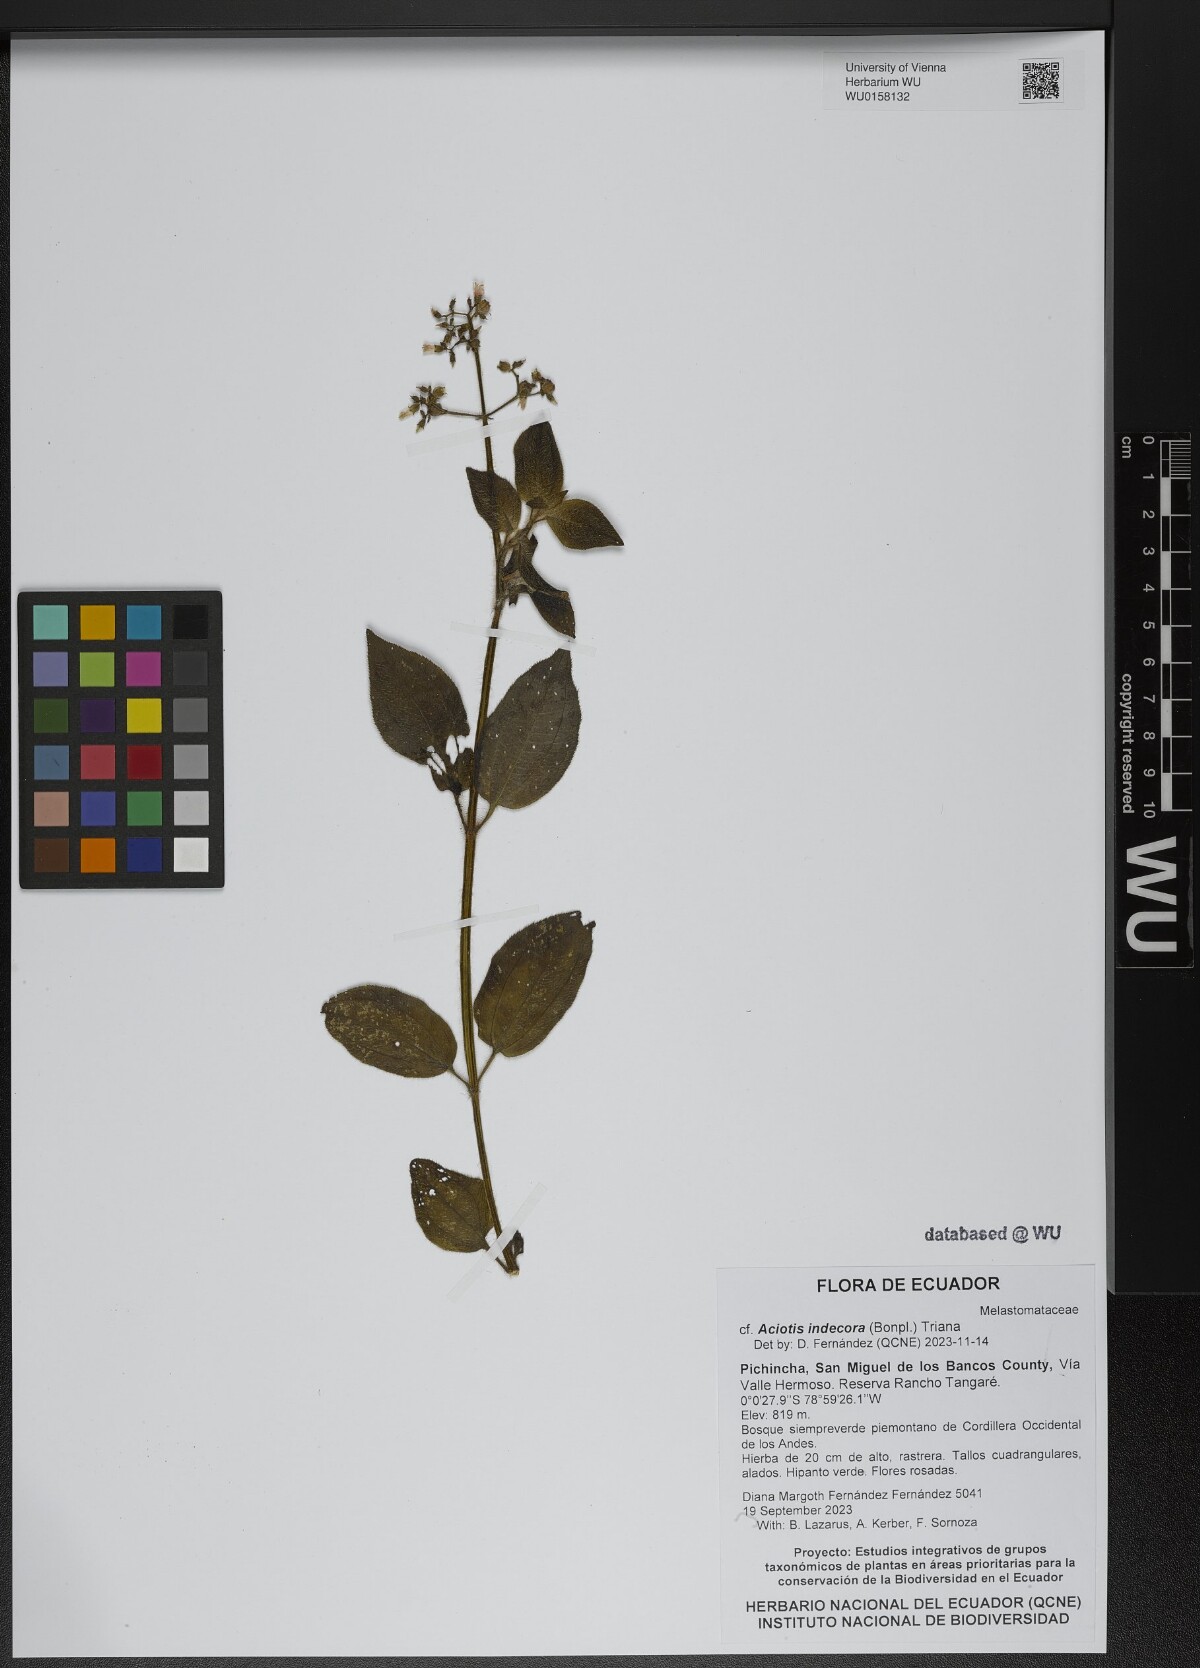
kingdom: Plantae
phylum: Tracheophyta
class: Magnoliopsida
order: Myrtales
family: Melastomataceae
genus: Aciotis
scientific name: Aciotis indecora
